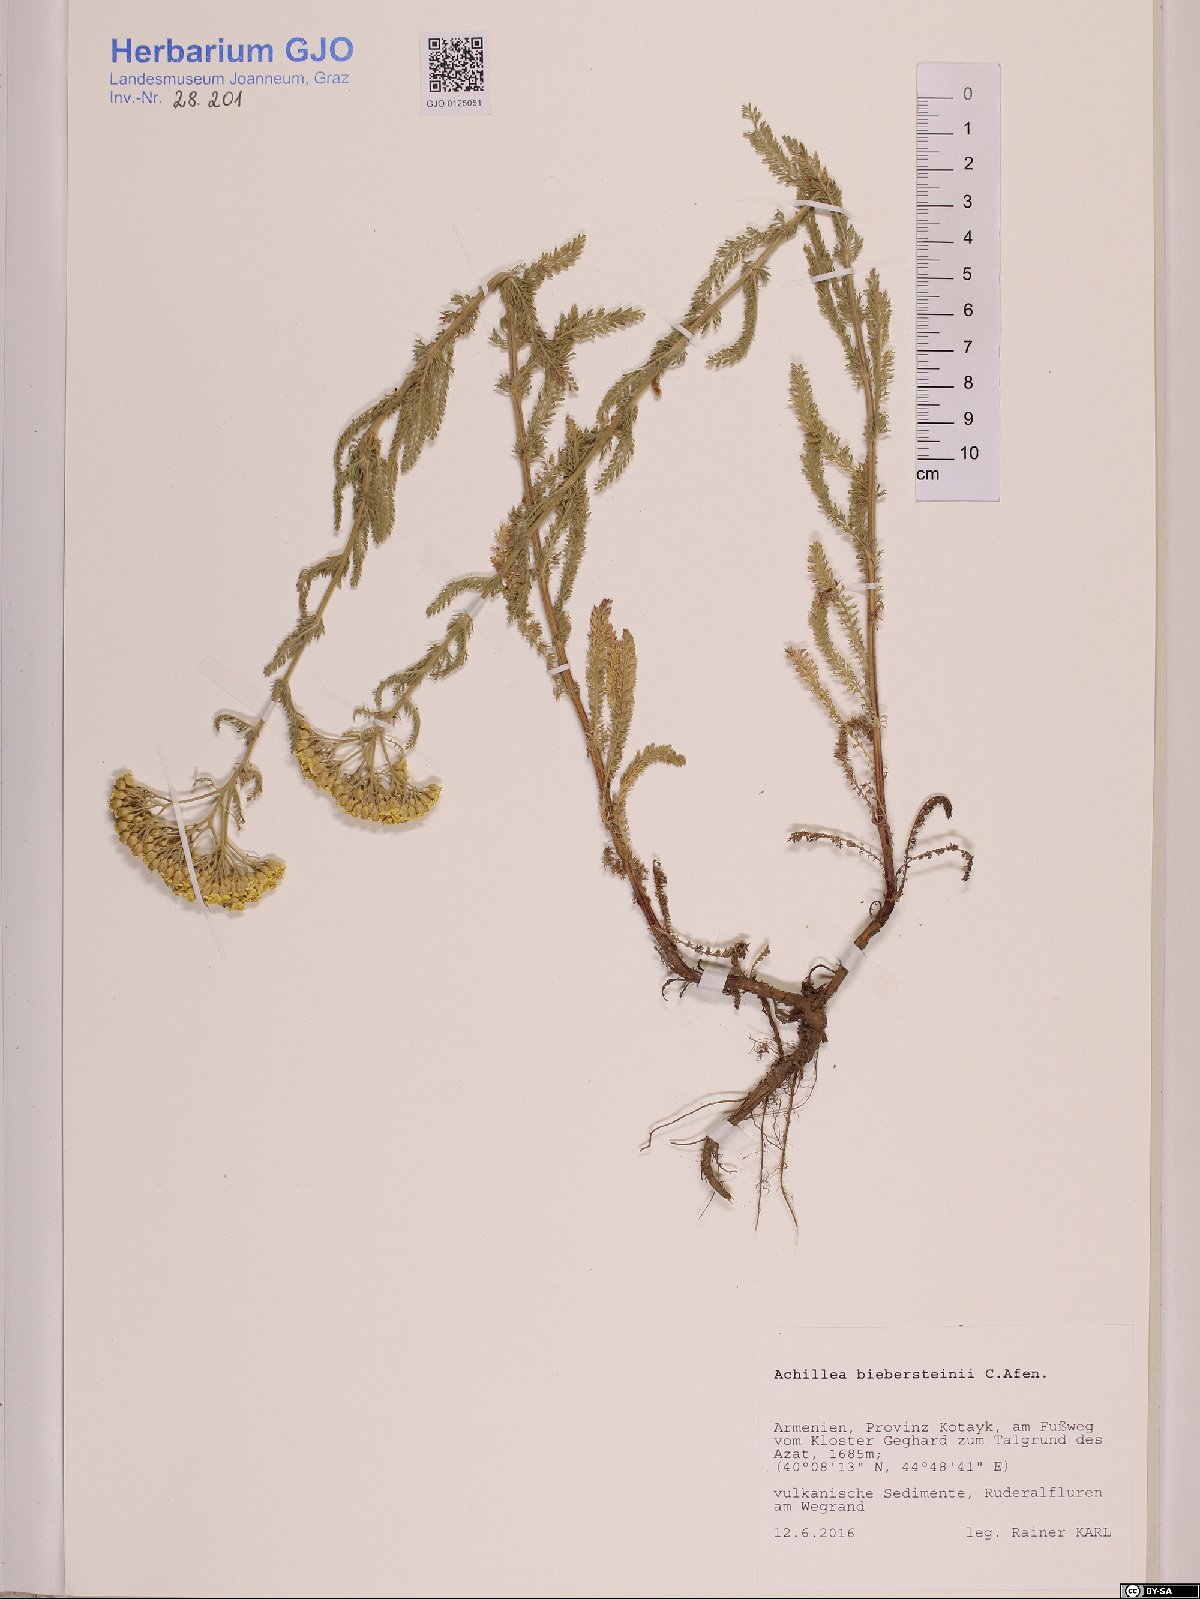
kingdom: Plantae
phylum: Tracheophyta
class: Magnoliopsida
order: Asterales
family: Asteraceae
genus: Achillea
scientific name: Achillea arabica
